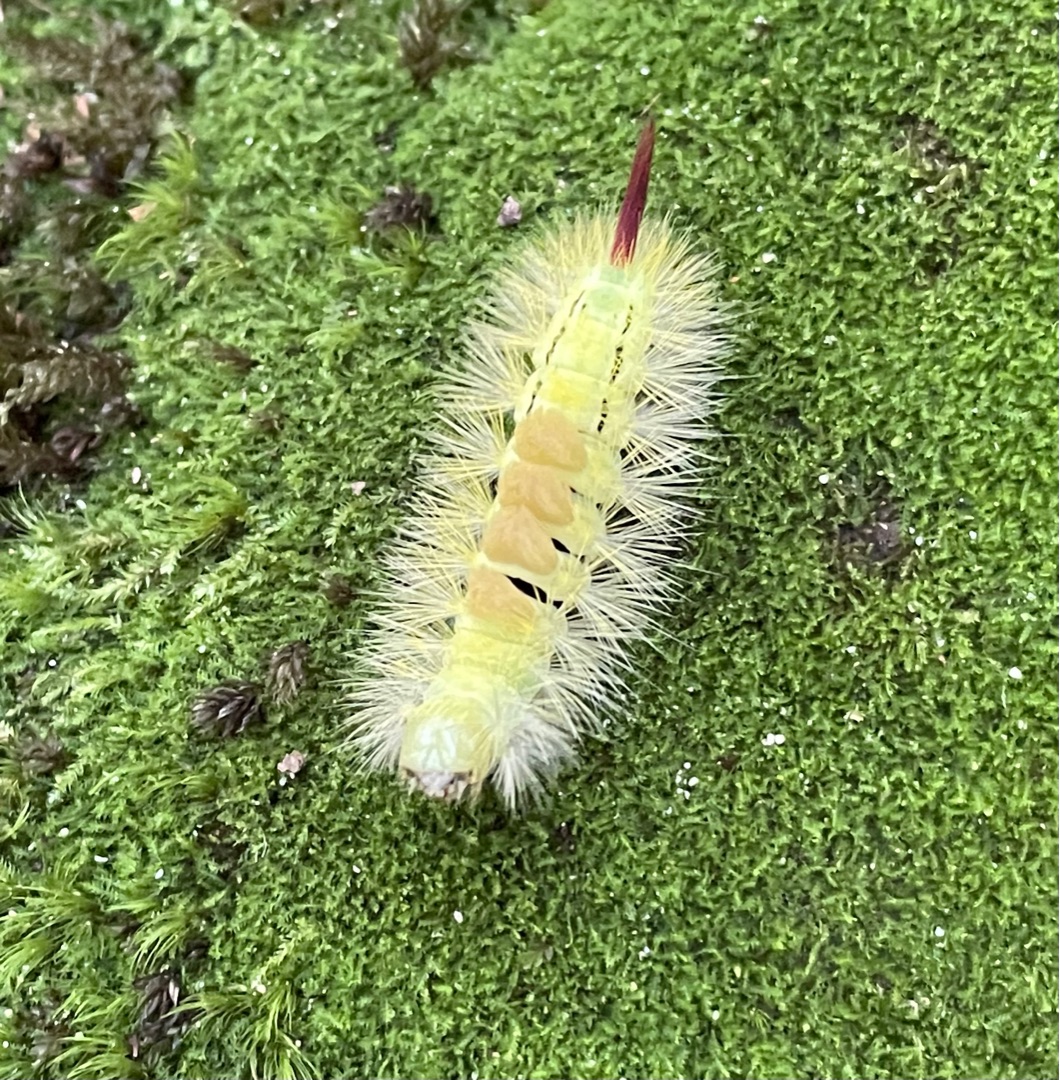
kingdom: Animalia
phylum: Arthropoda
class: Insecta
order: Lepidoptera
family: Erebidae
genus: Calliteara
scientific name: Calliteara pudibunda
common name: Bøgenonne
